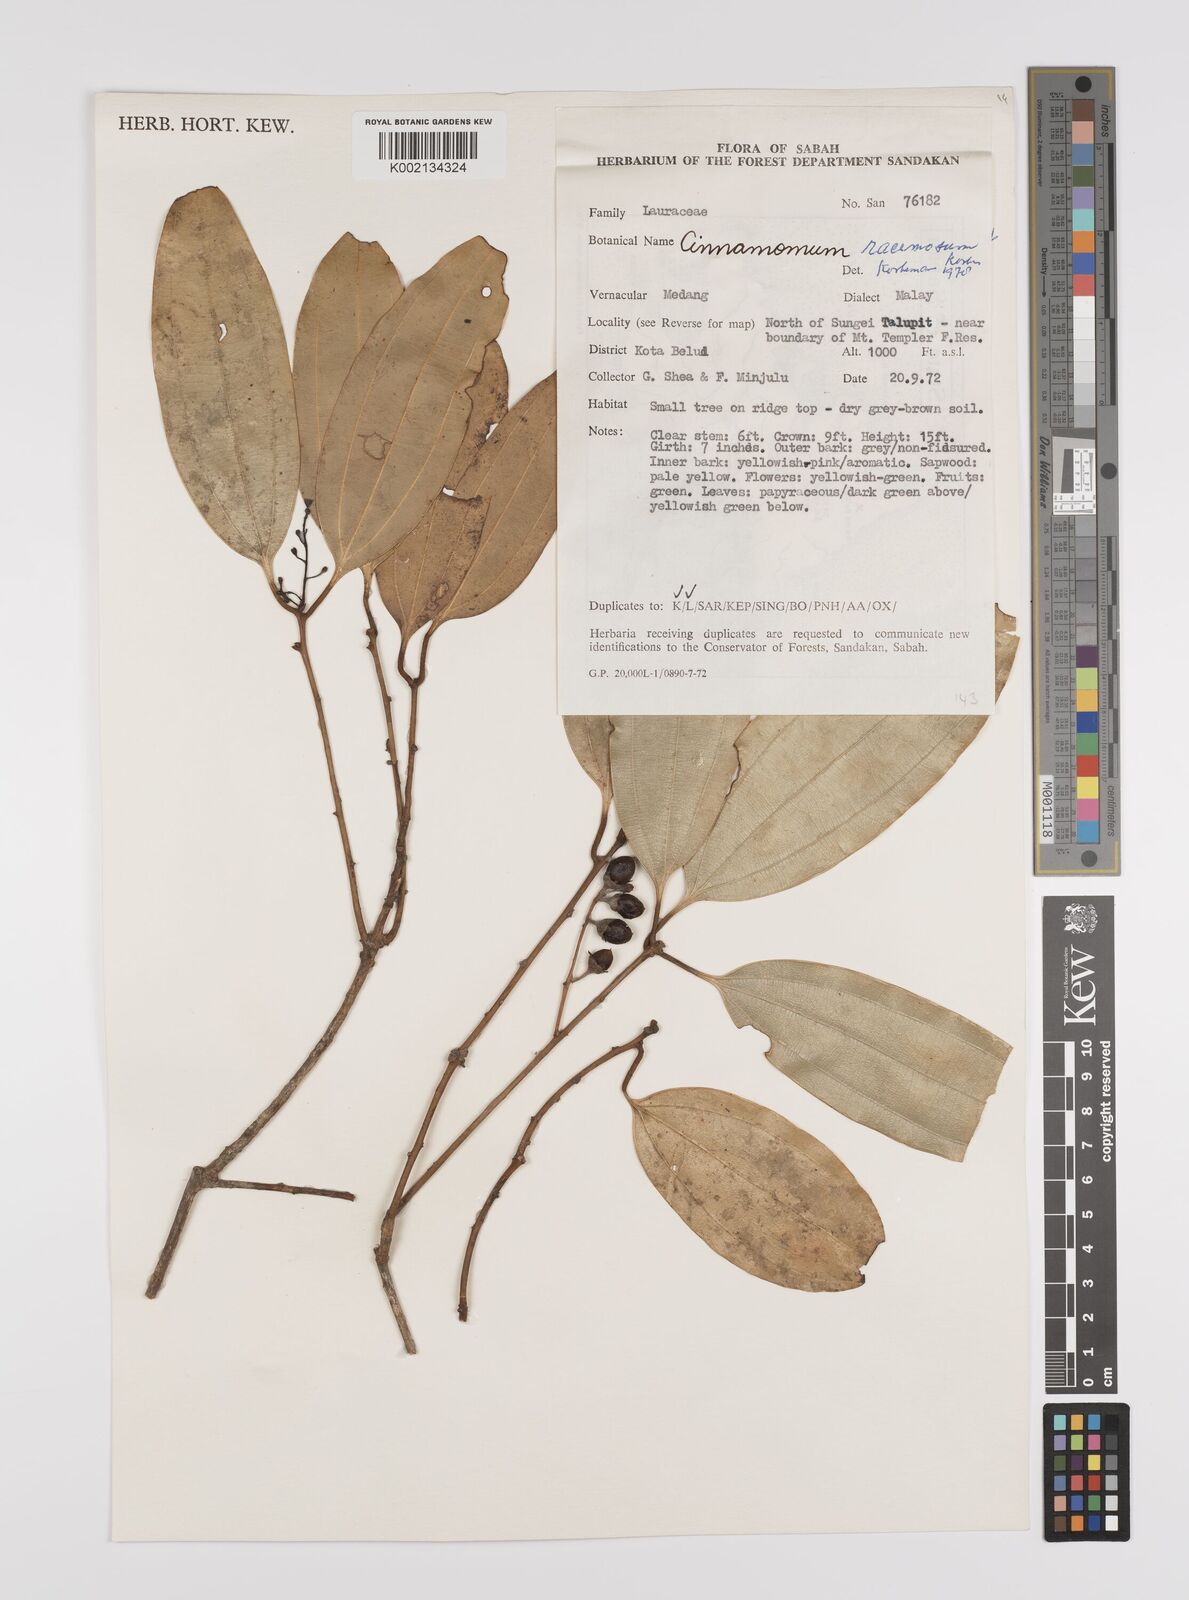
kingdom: Plantae
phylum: Tracheophyta
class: Magnoliopsida
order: Laurales
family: Lauraceae
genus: Cinnamomum
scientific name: Cinnamomum racemosum
